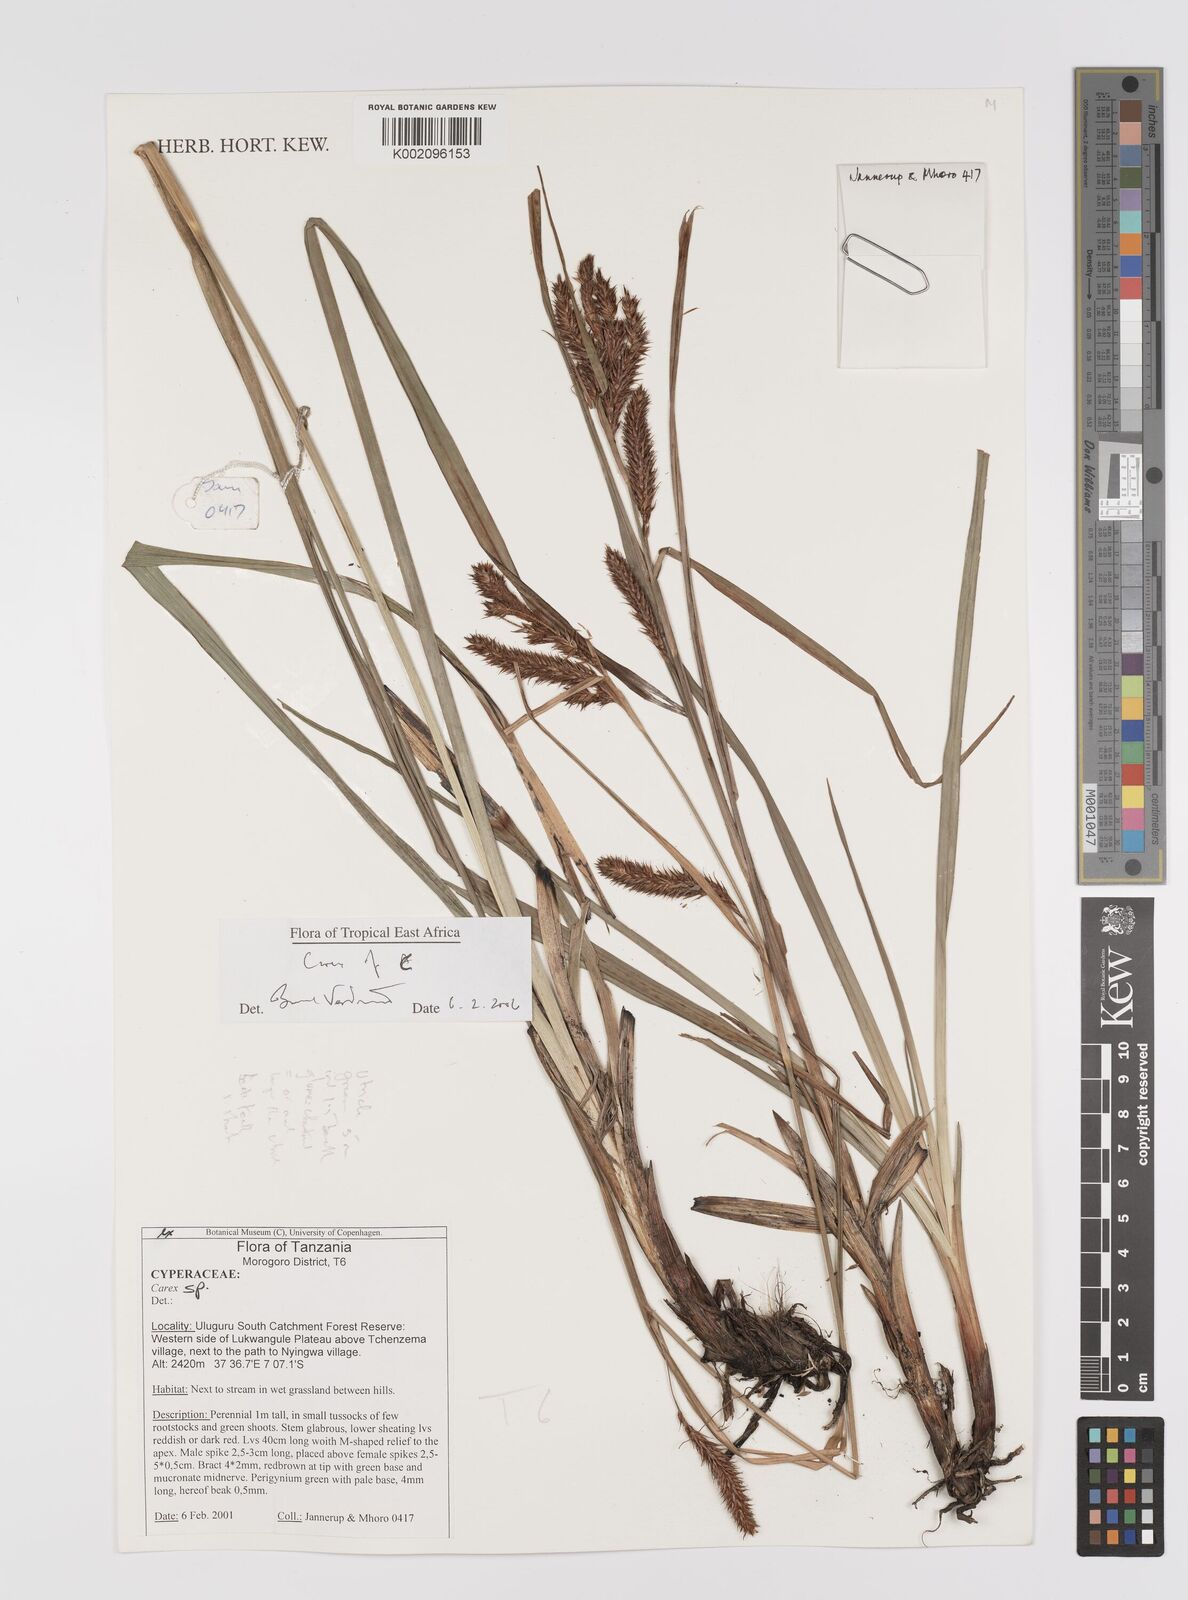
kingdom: Plantae
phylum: Tracheophyta
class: Liliopsida
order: Poales
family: Cyperaceae
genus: Carex
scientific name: Carex
